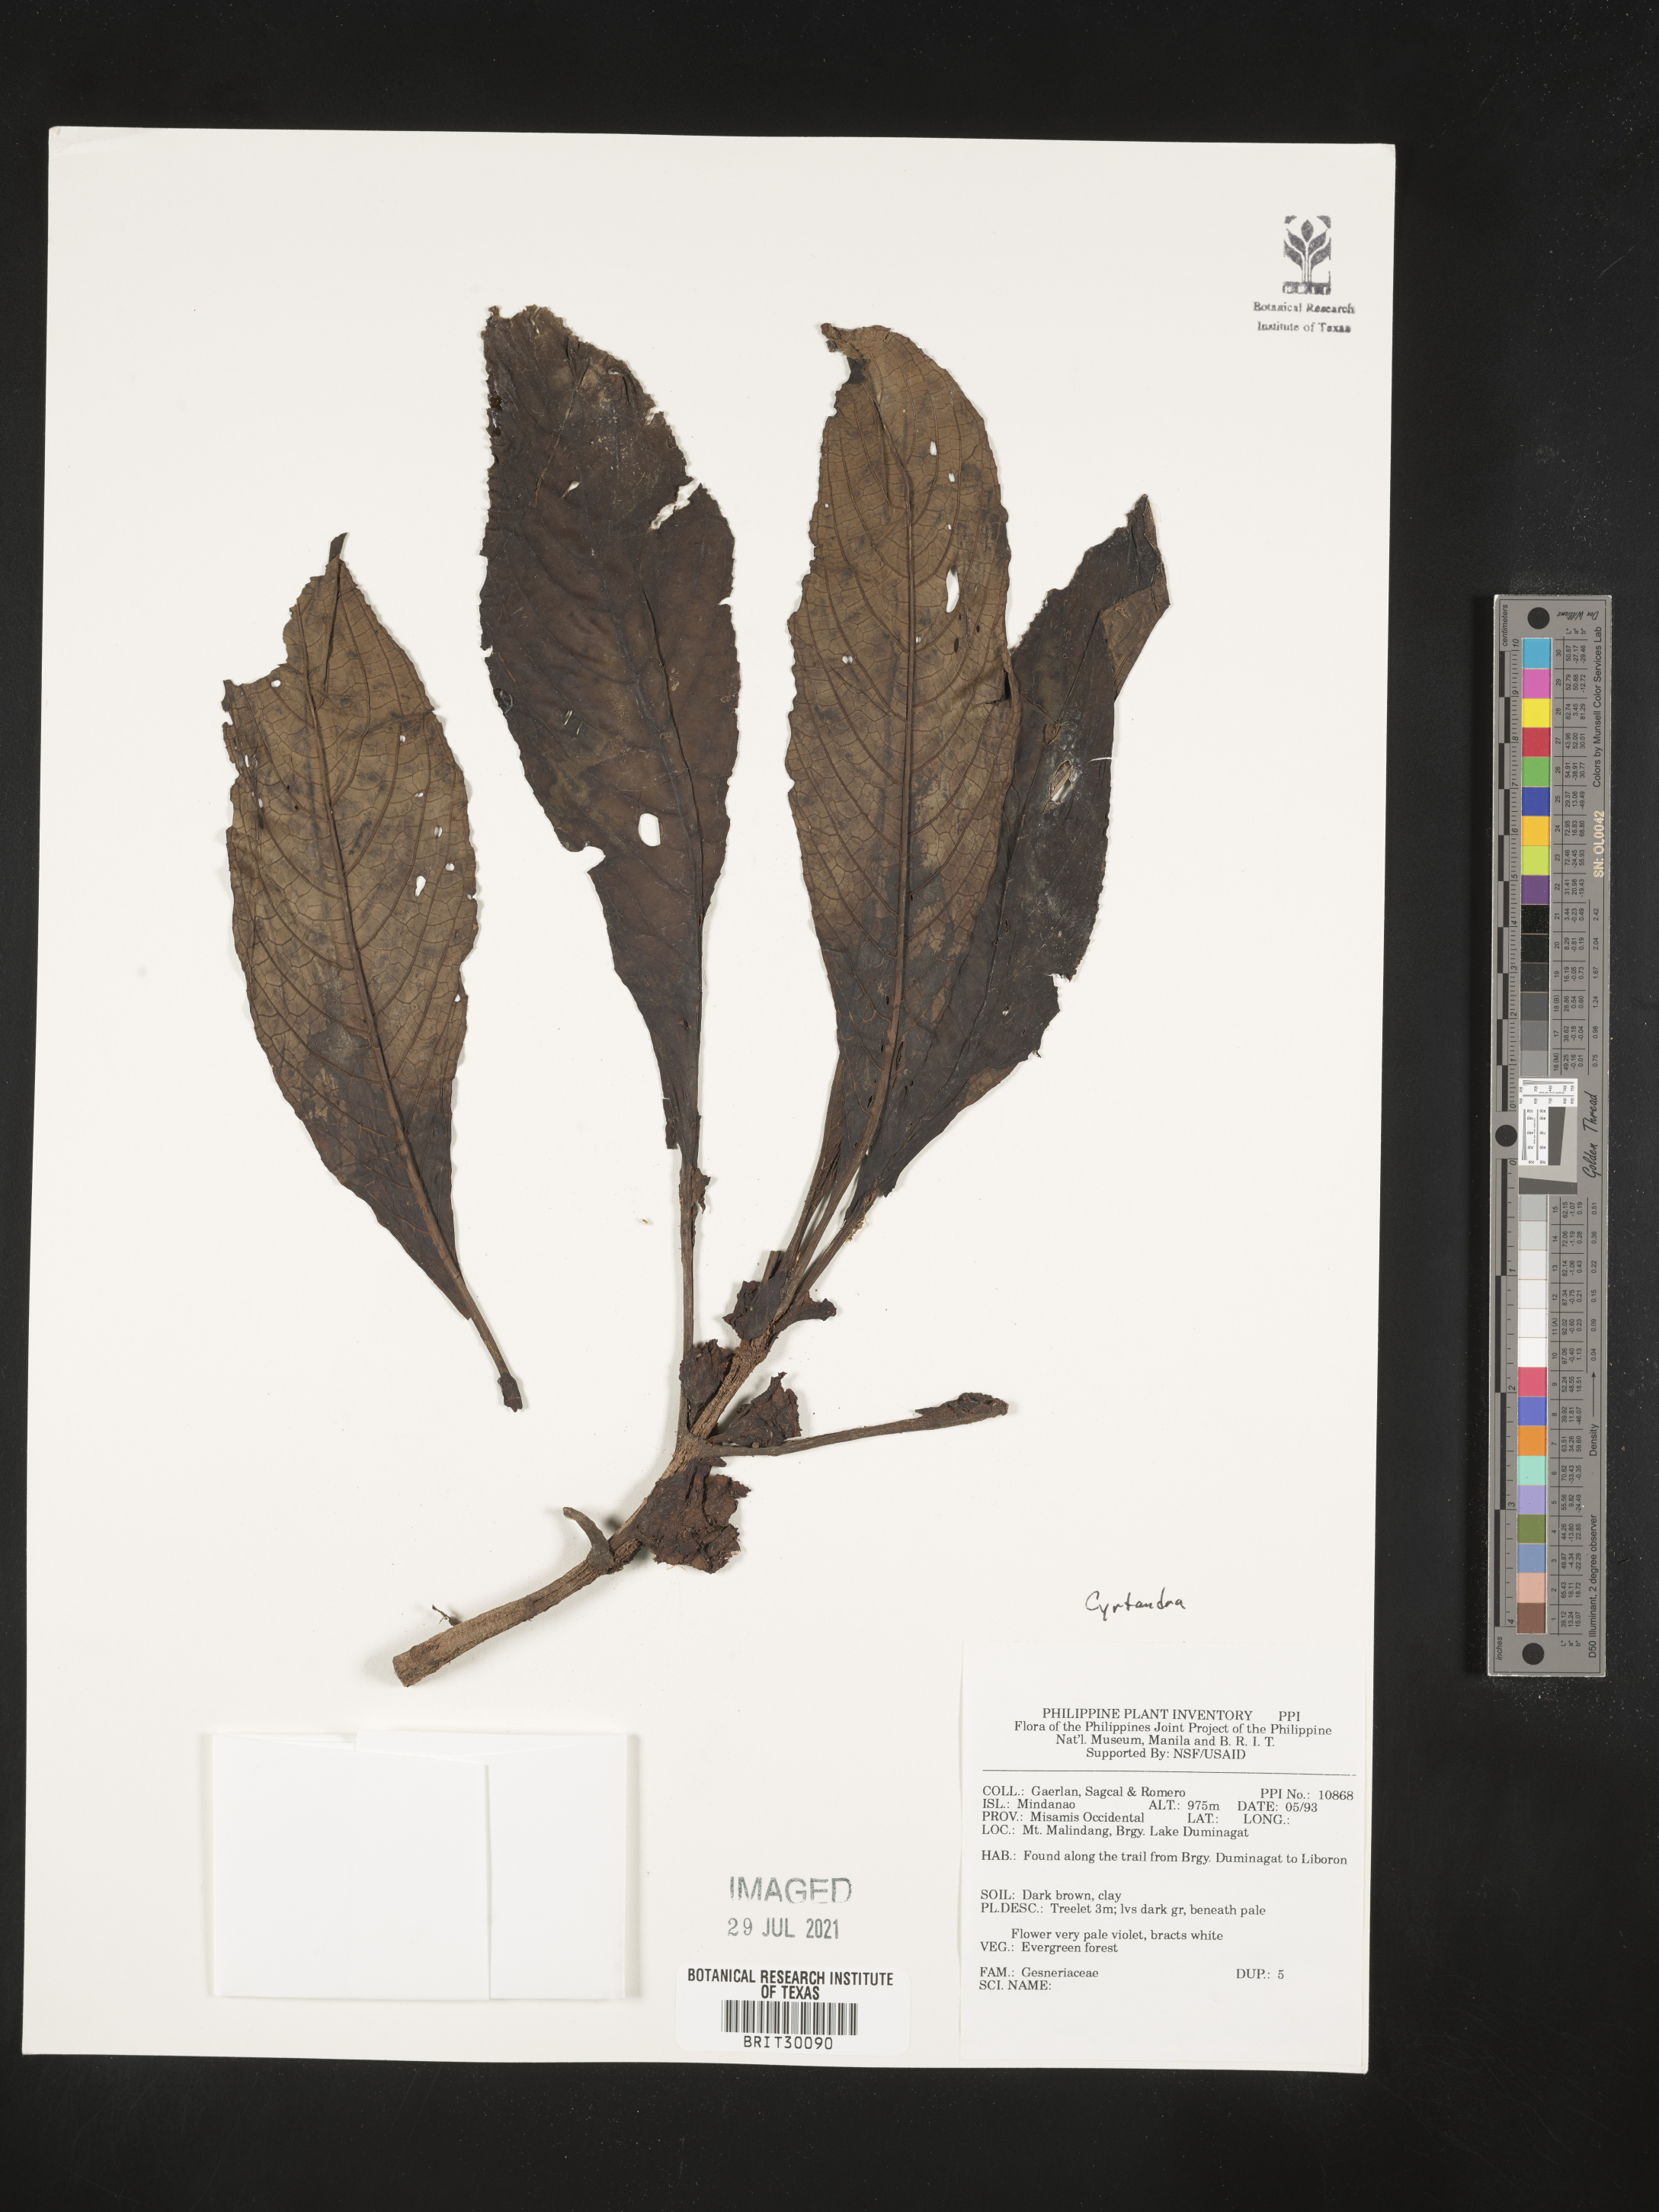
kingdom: Plantae
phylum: Tracheophyta
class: Magnoliopsida
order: Lamiales
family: Gesneriaceae
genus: Cyrtandra
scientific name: Cyrtandra
